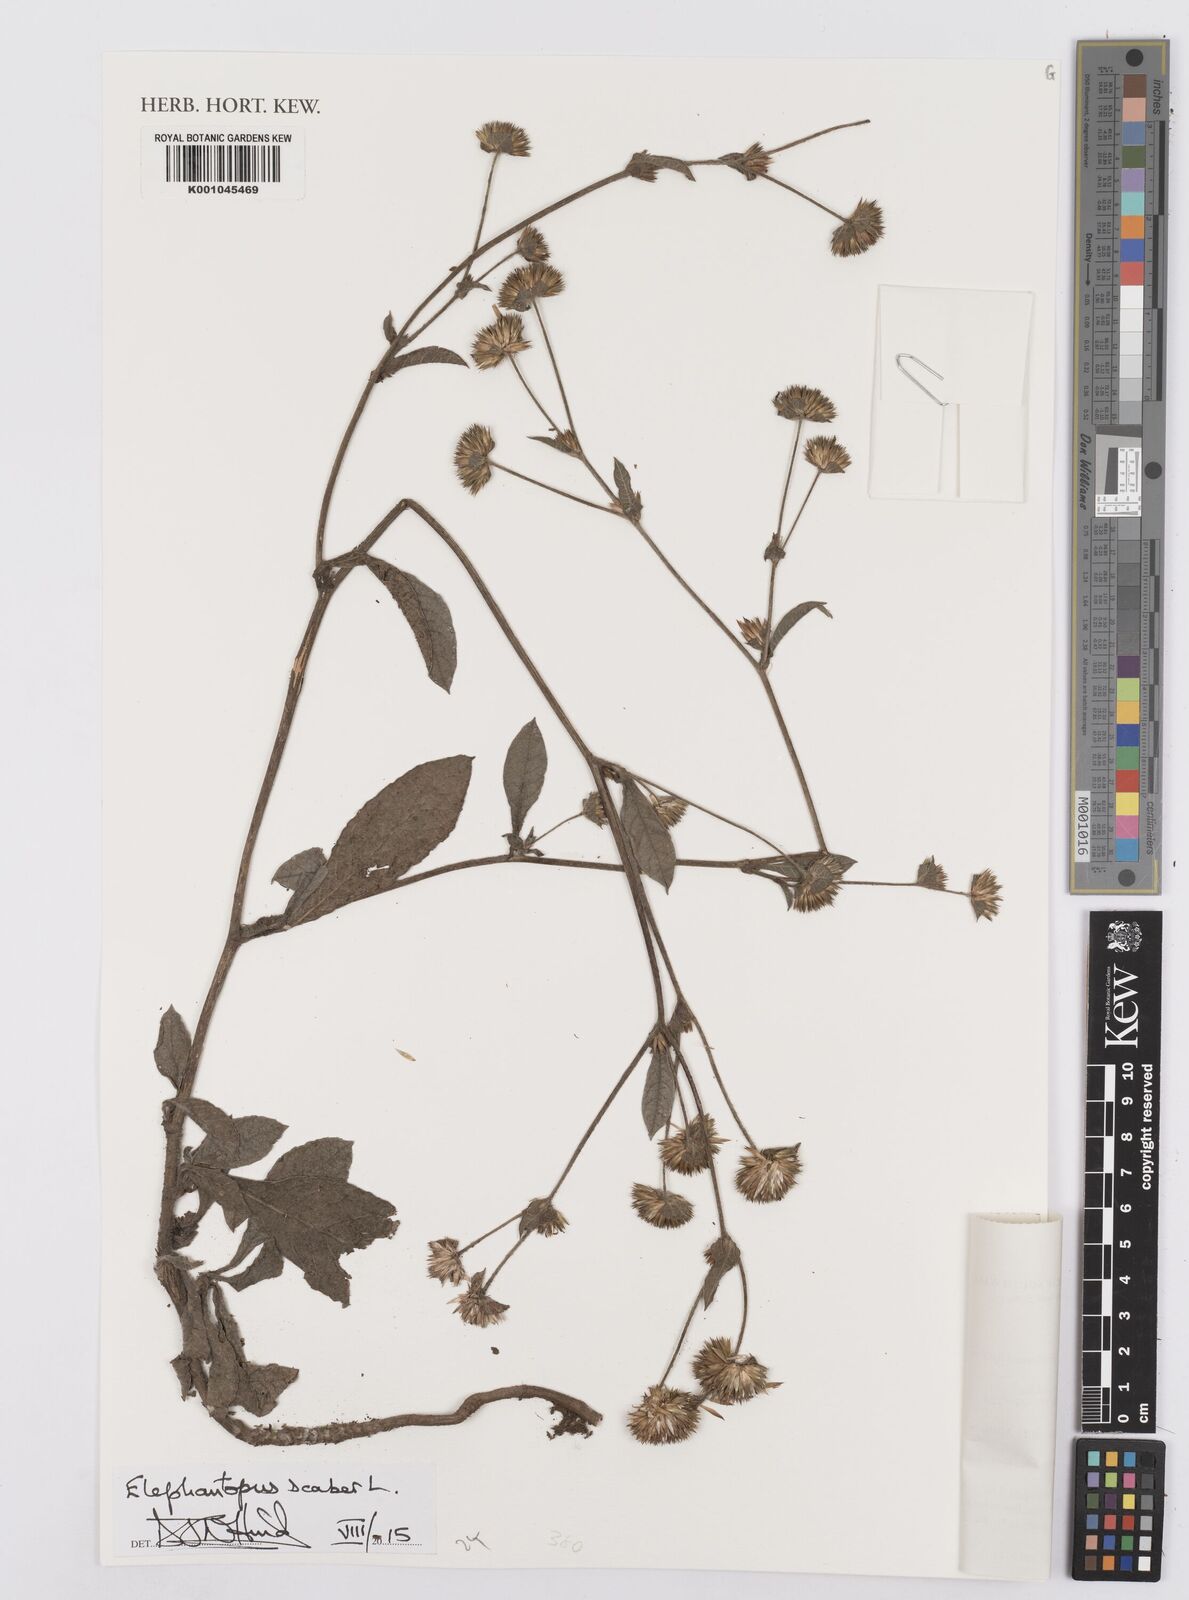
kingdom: Plantae
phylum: Tracheophyta
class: Magnoliopsida
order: Asterales
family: Asteraceae
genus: Elephantopus
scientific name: Elephantopus scaber
